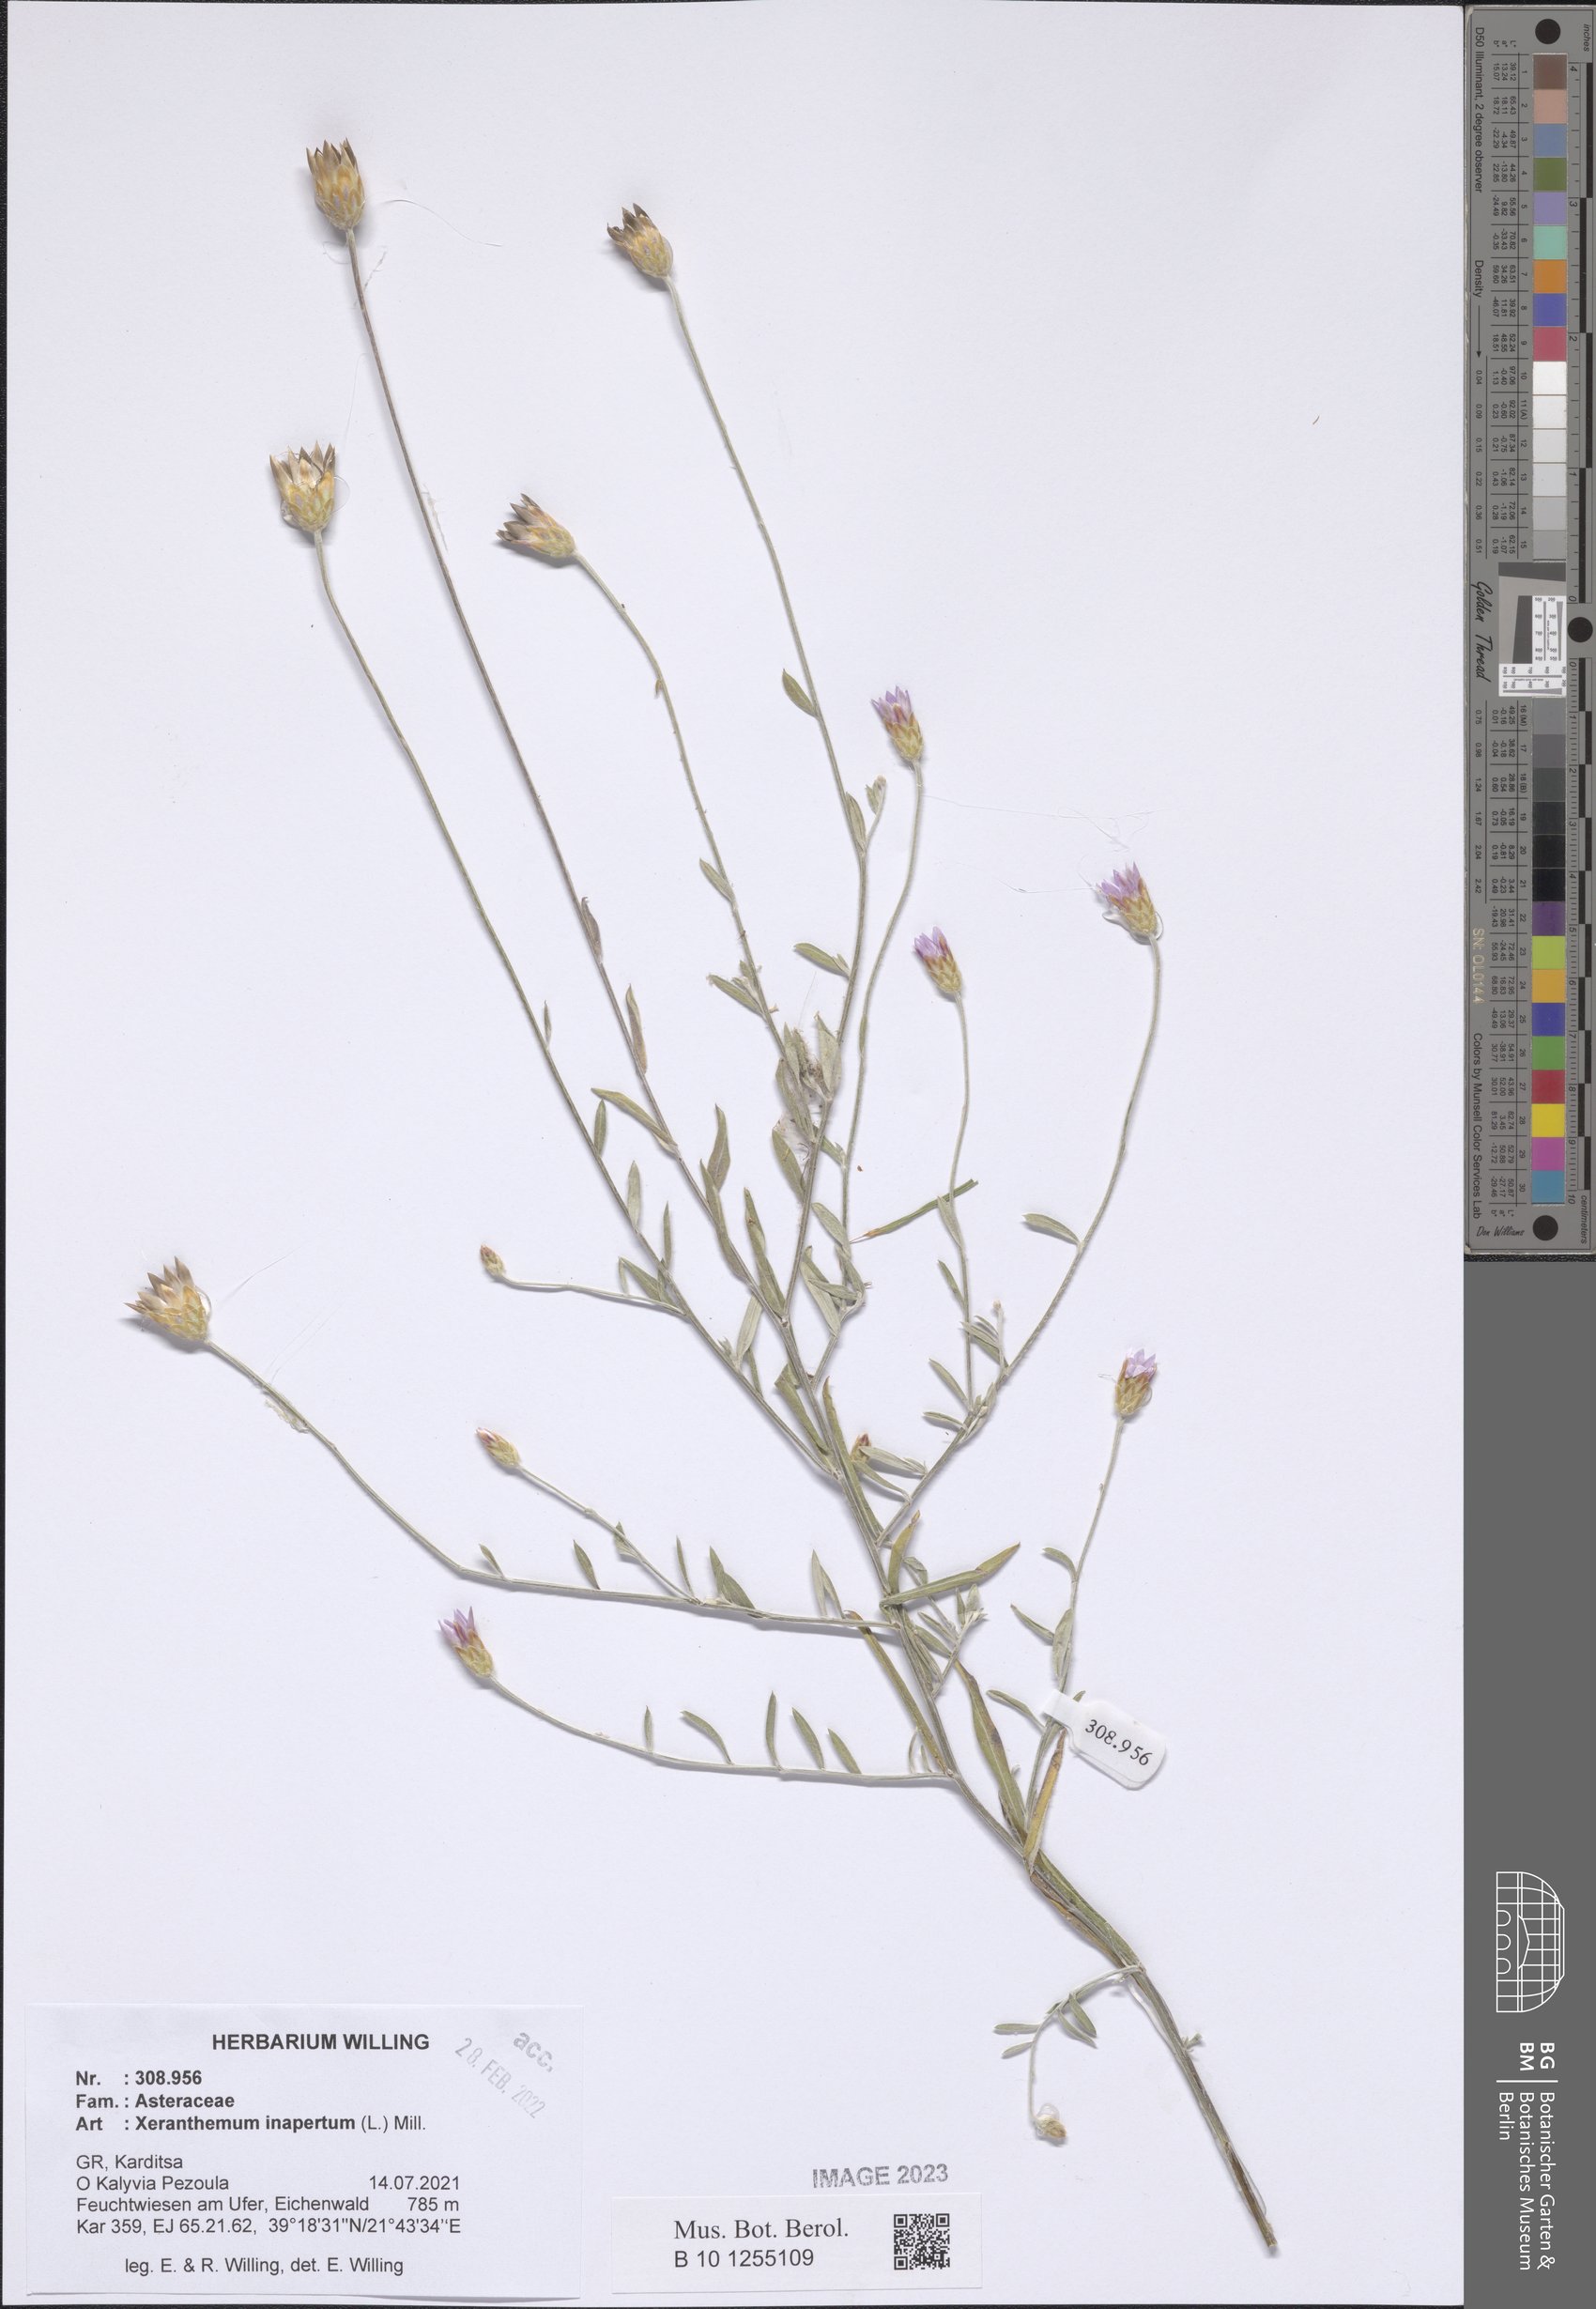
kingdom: Plantae
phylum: Tracheophyta
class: Magnoliopsida
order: Asterales
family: Asteraceae
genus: Xeranthemum
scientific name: Xeranthemum inapertum
